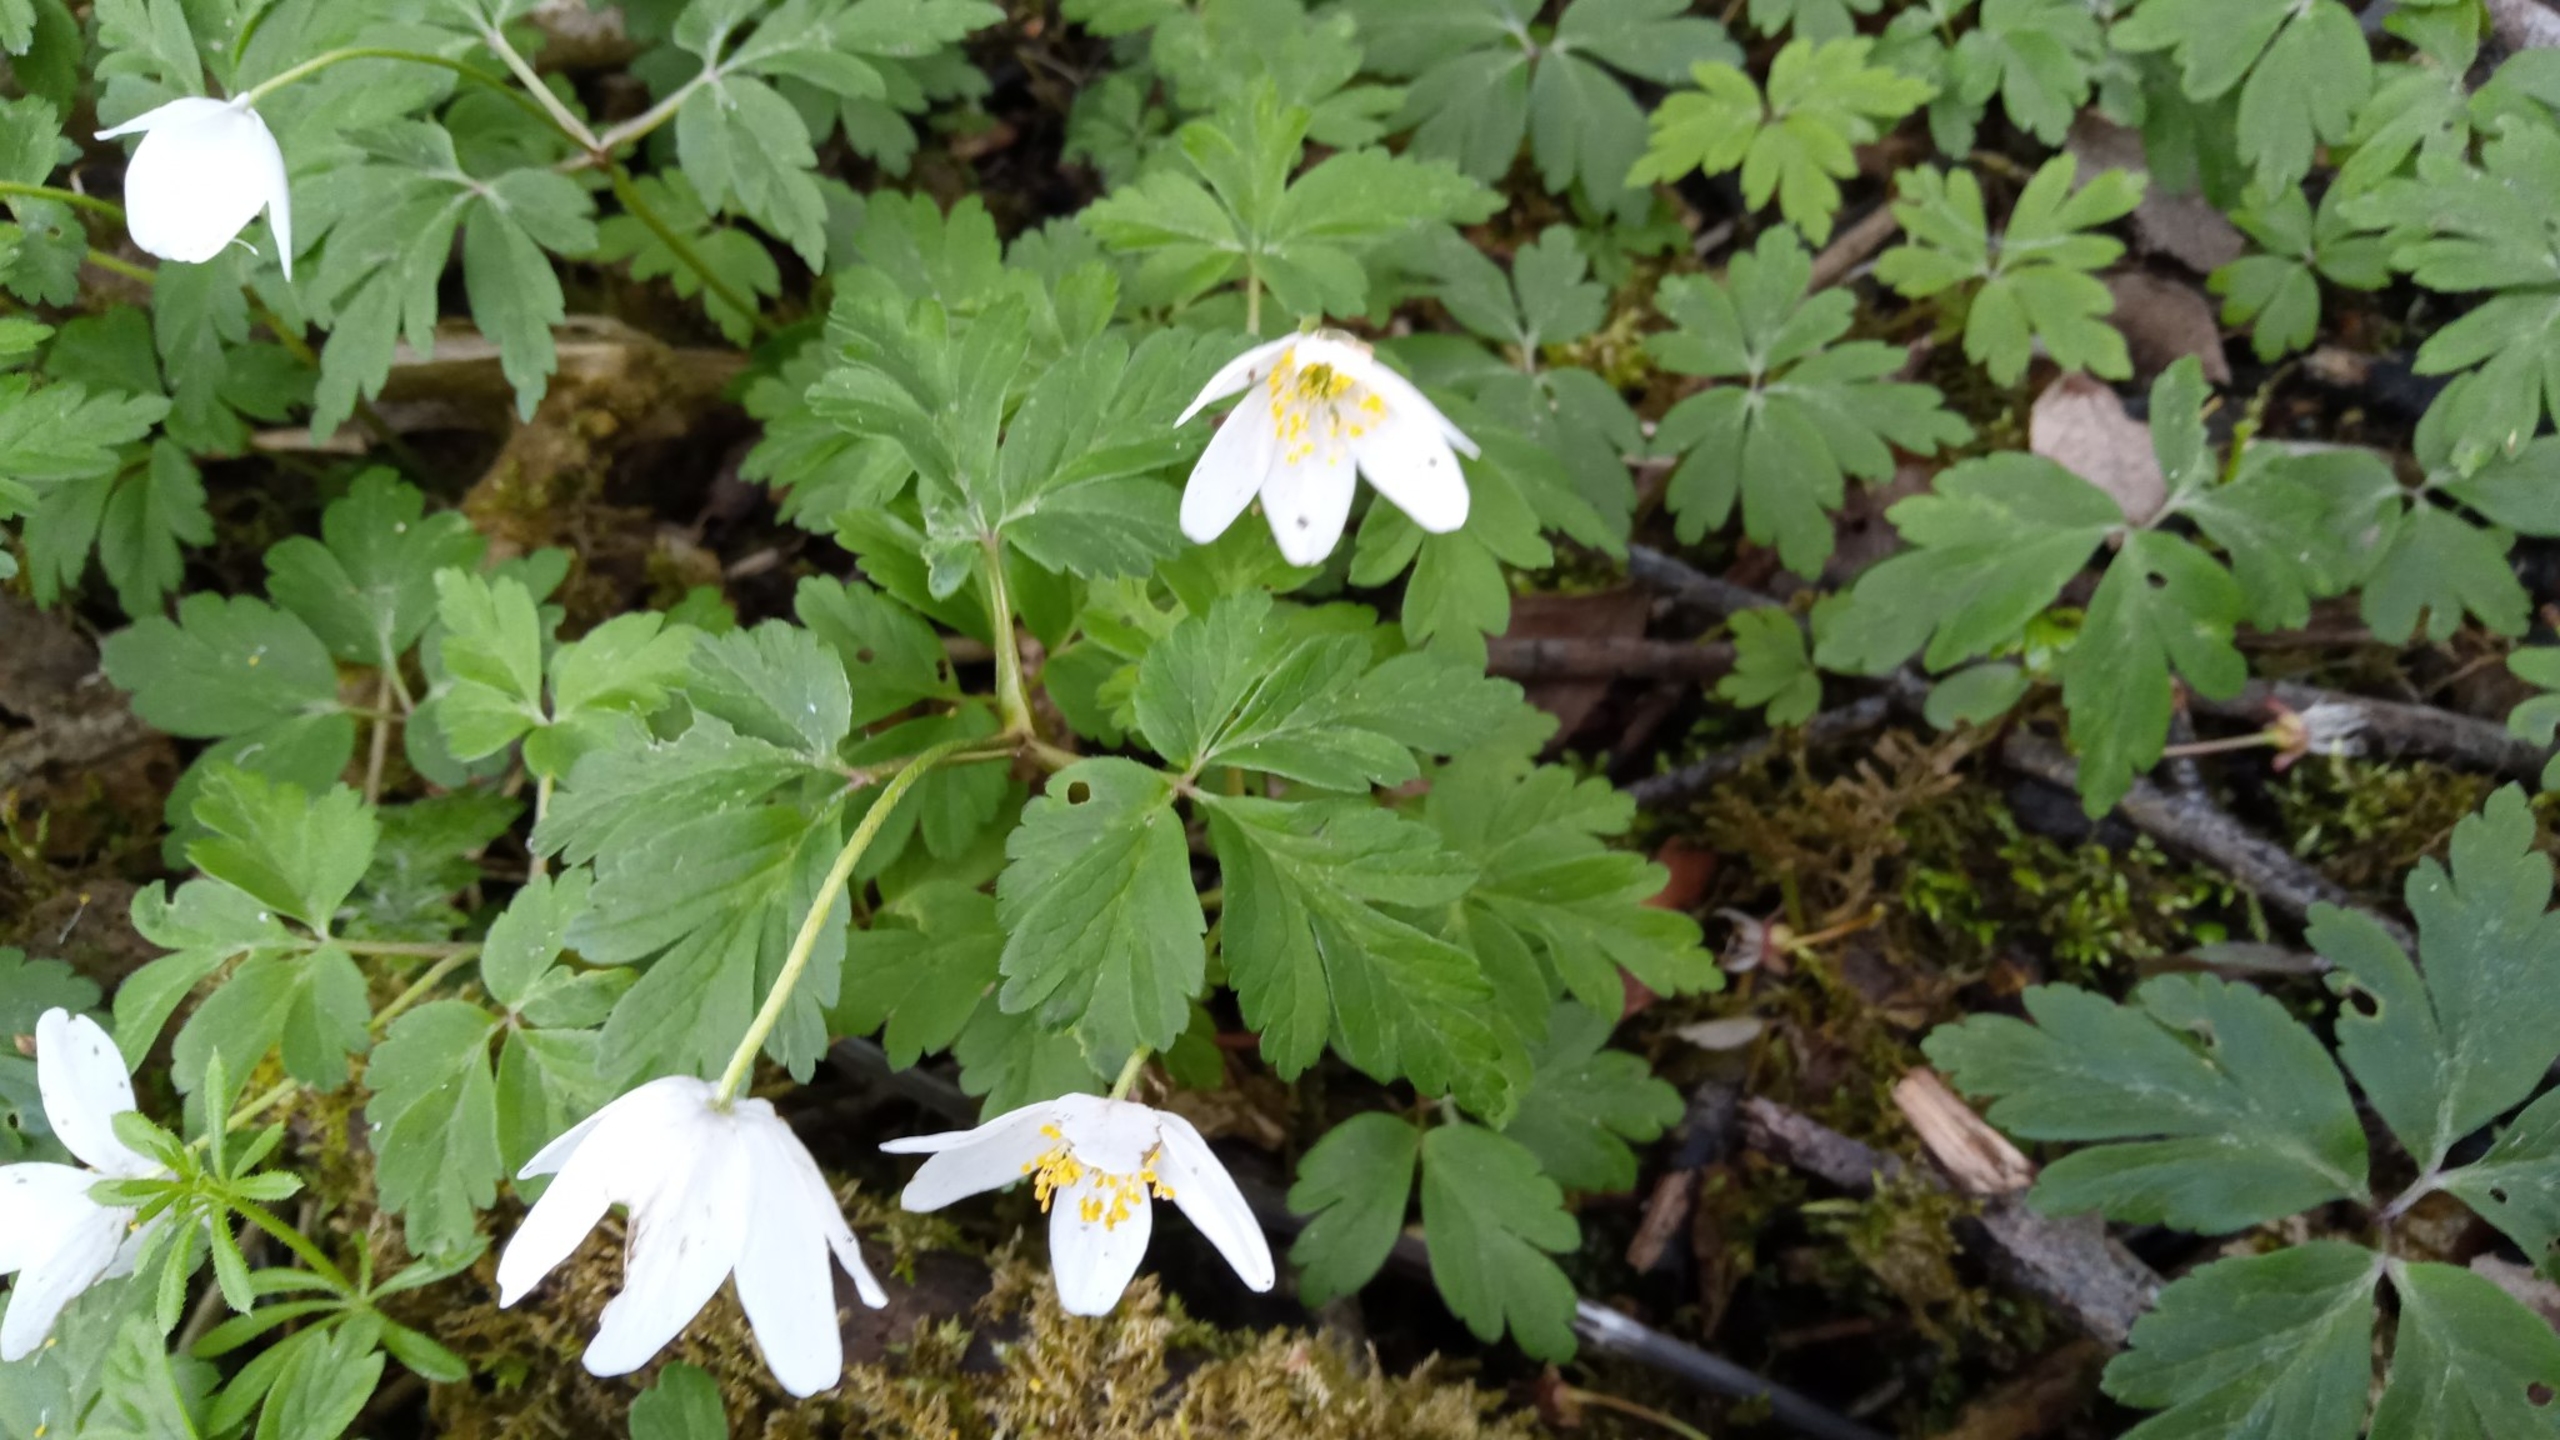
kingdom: Plantae
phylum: Tracheophyta
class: Magnoliopsida
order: Ranunculales
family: Ranunculaceae
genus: Anemone
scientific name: Anemone nemorosa
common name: Hvid anemone
